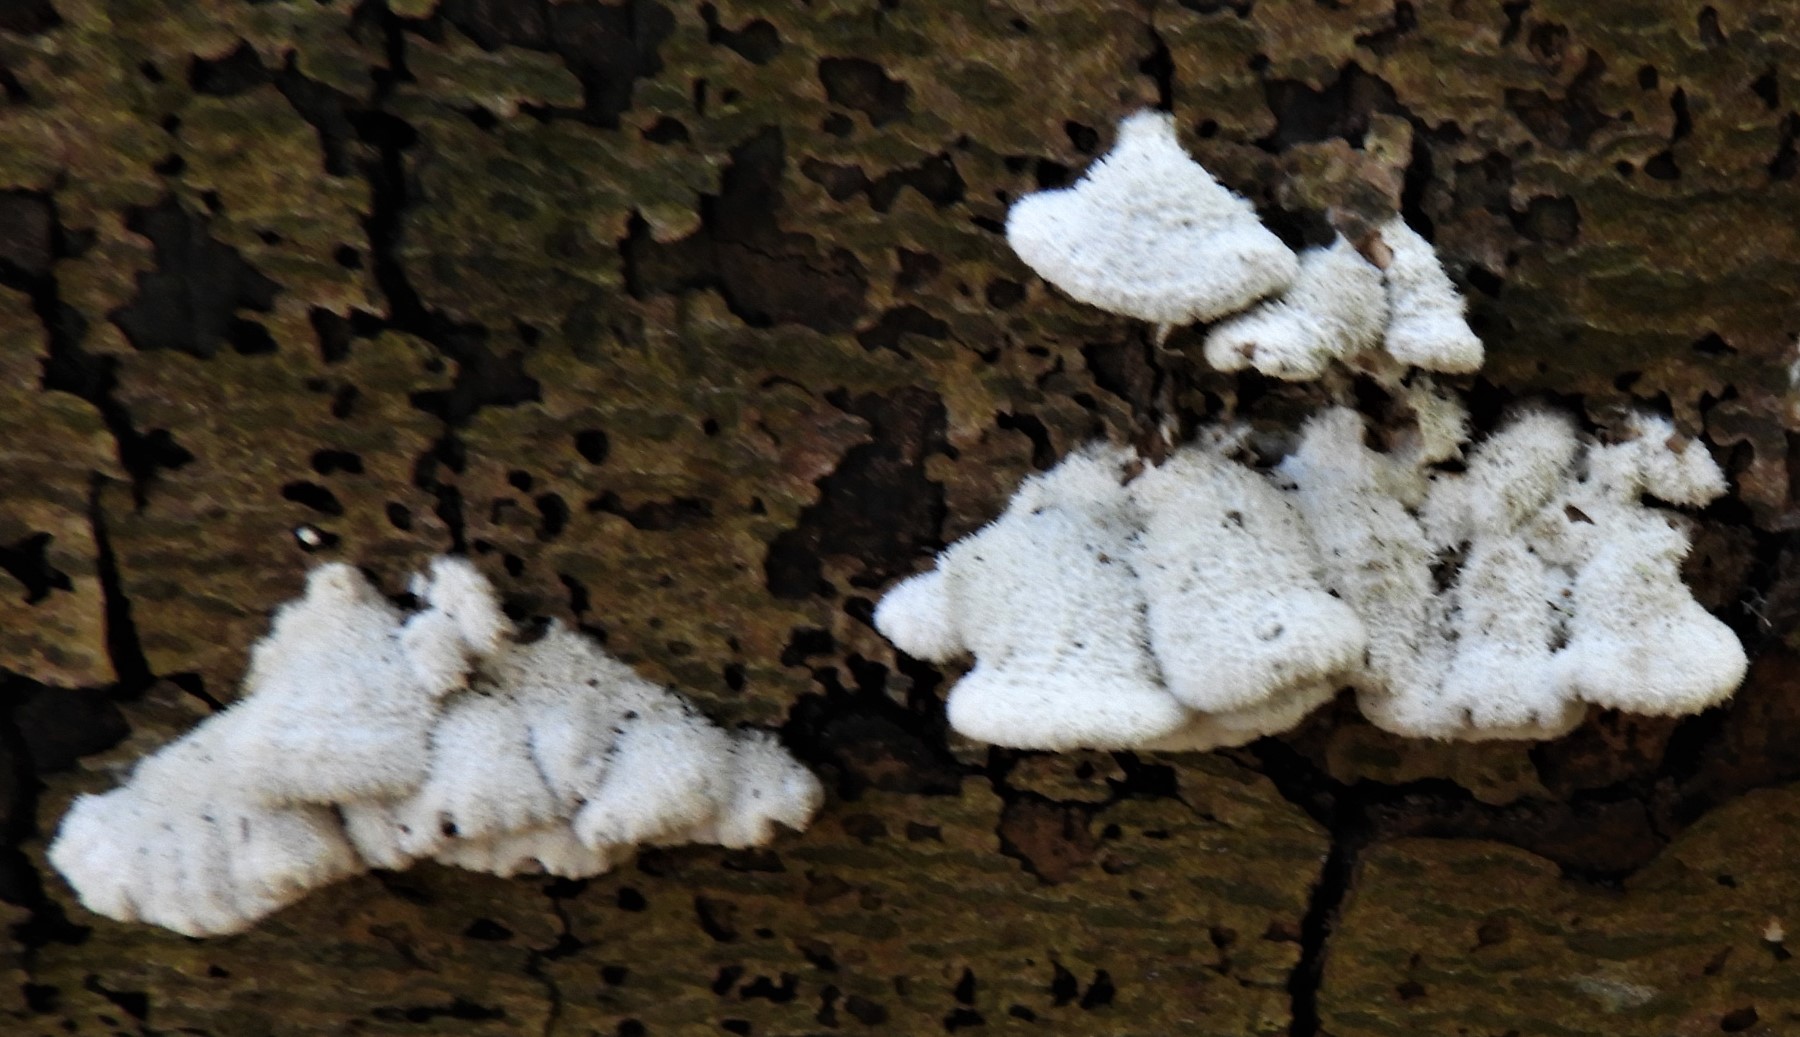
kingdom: Fungi
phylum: Basidiomycota
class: Agaricomycetes
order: Agaricales
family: Schizophyllaceae
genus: Schizophyllum
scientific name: Schizophyllum commune
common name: kløvblad
